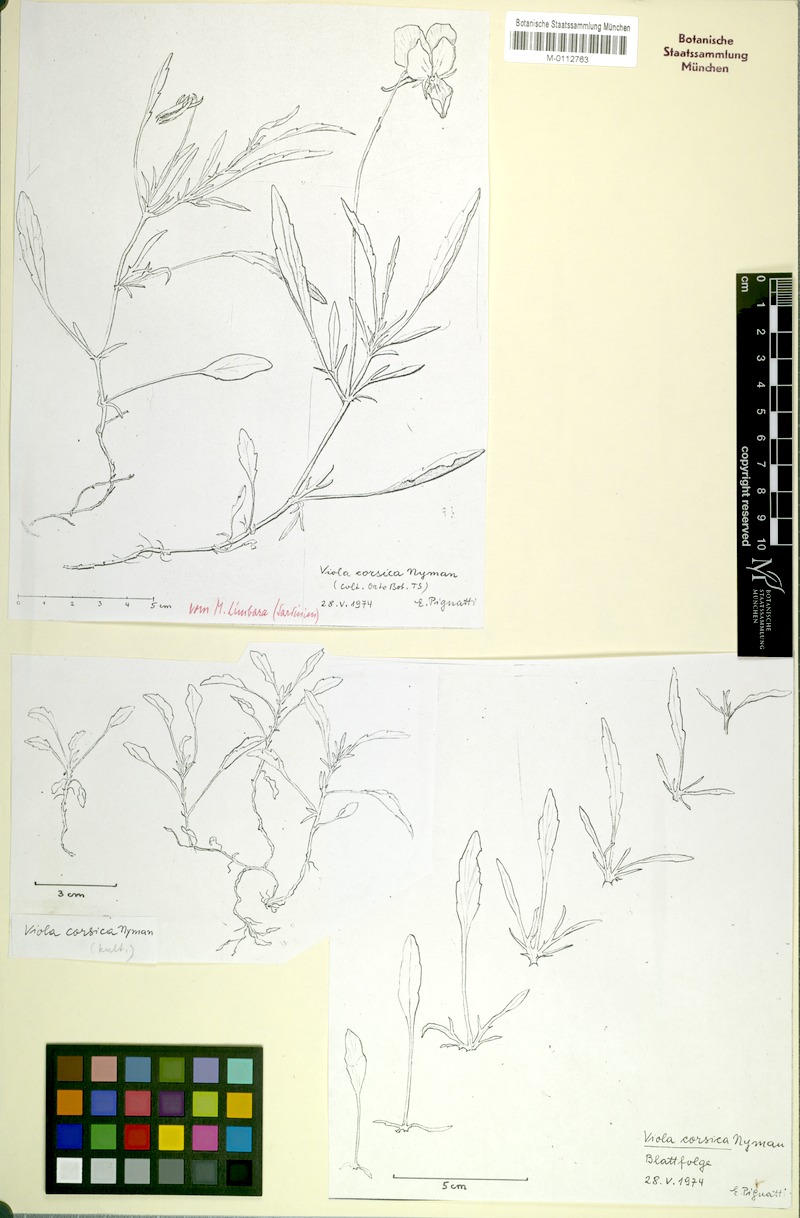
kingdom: Plantae
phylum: Tracheophyta
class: Magnoliopsida
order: Malpighiales
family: Violaceae
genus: Viola
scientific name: Viola corsica
